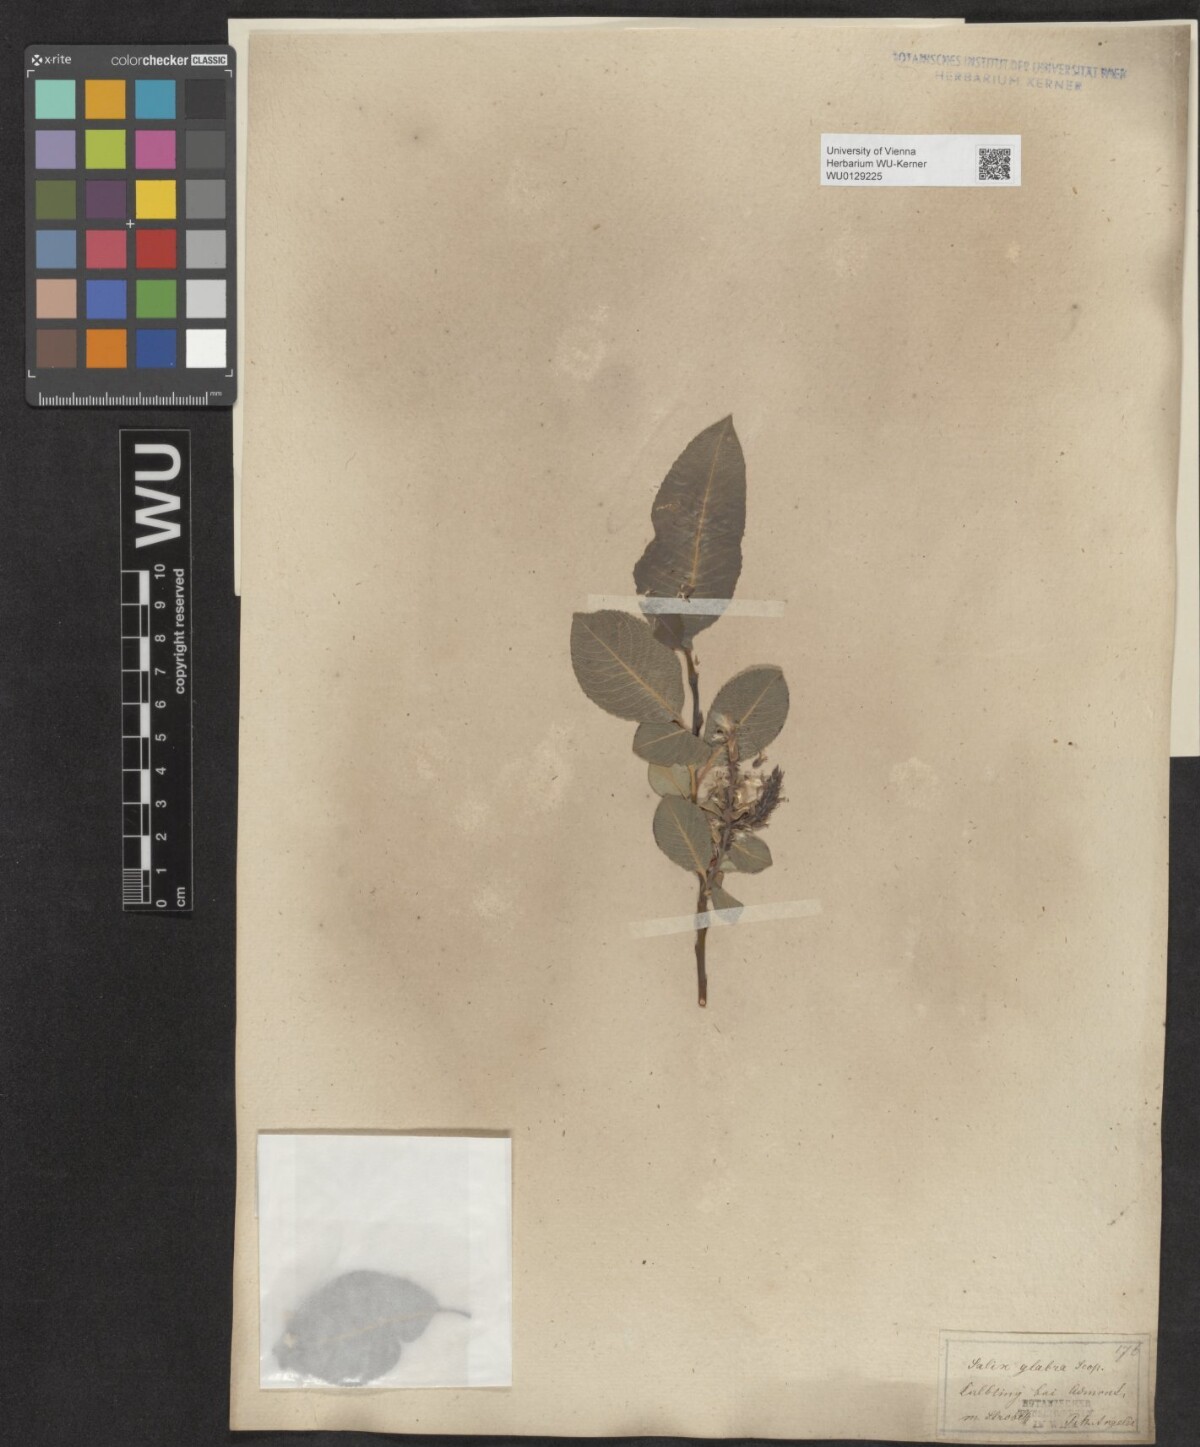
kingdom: Plantae
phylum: Tracheophyta
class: Magnoliopsida
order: Malpighiales
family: Salicaceae
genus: Salix
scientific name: Salix glabra
